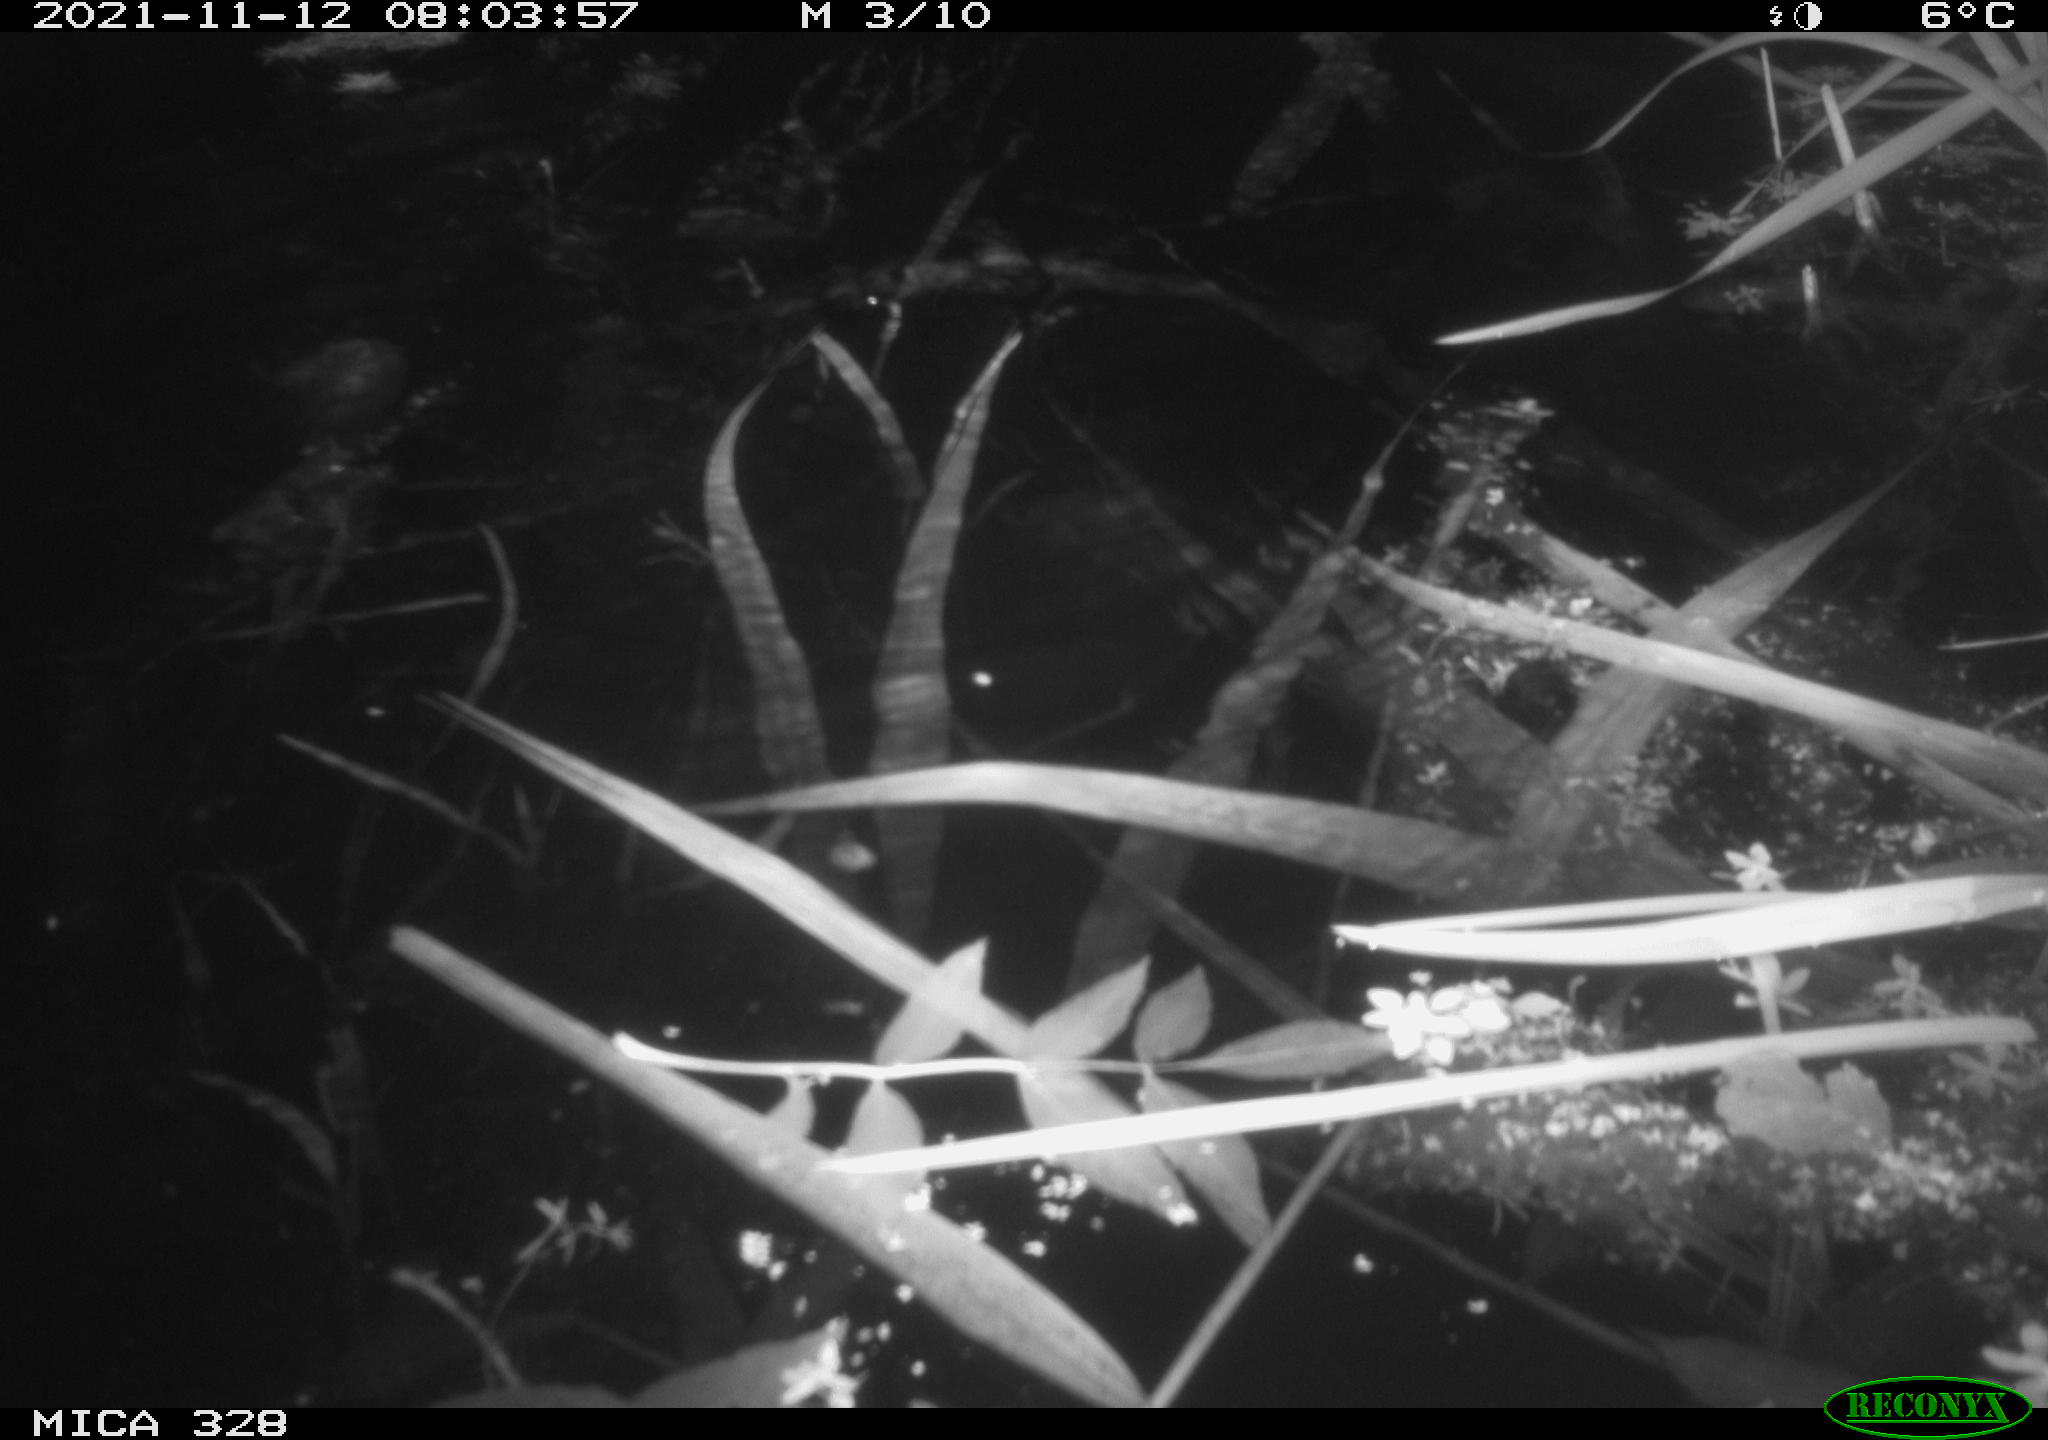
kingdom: Animalia
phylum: Chordata
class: Mammalia
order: Rodentia
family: Cricetidae
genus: Ondatra
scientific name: Ondatra zibethicus
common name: Muskrat
